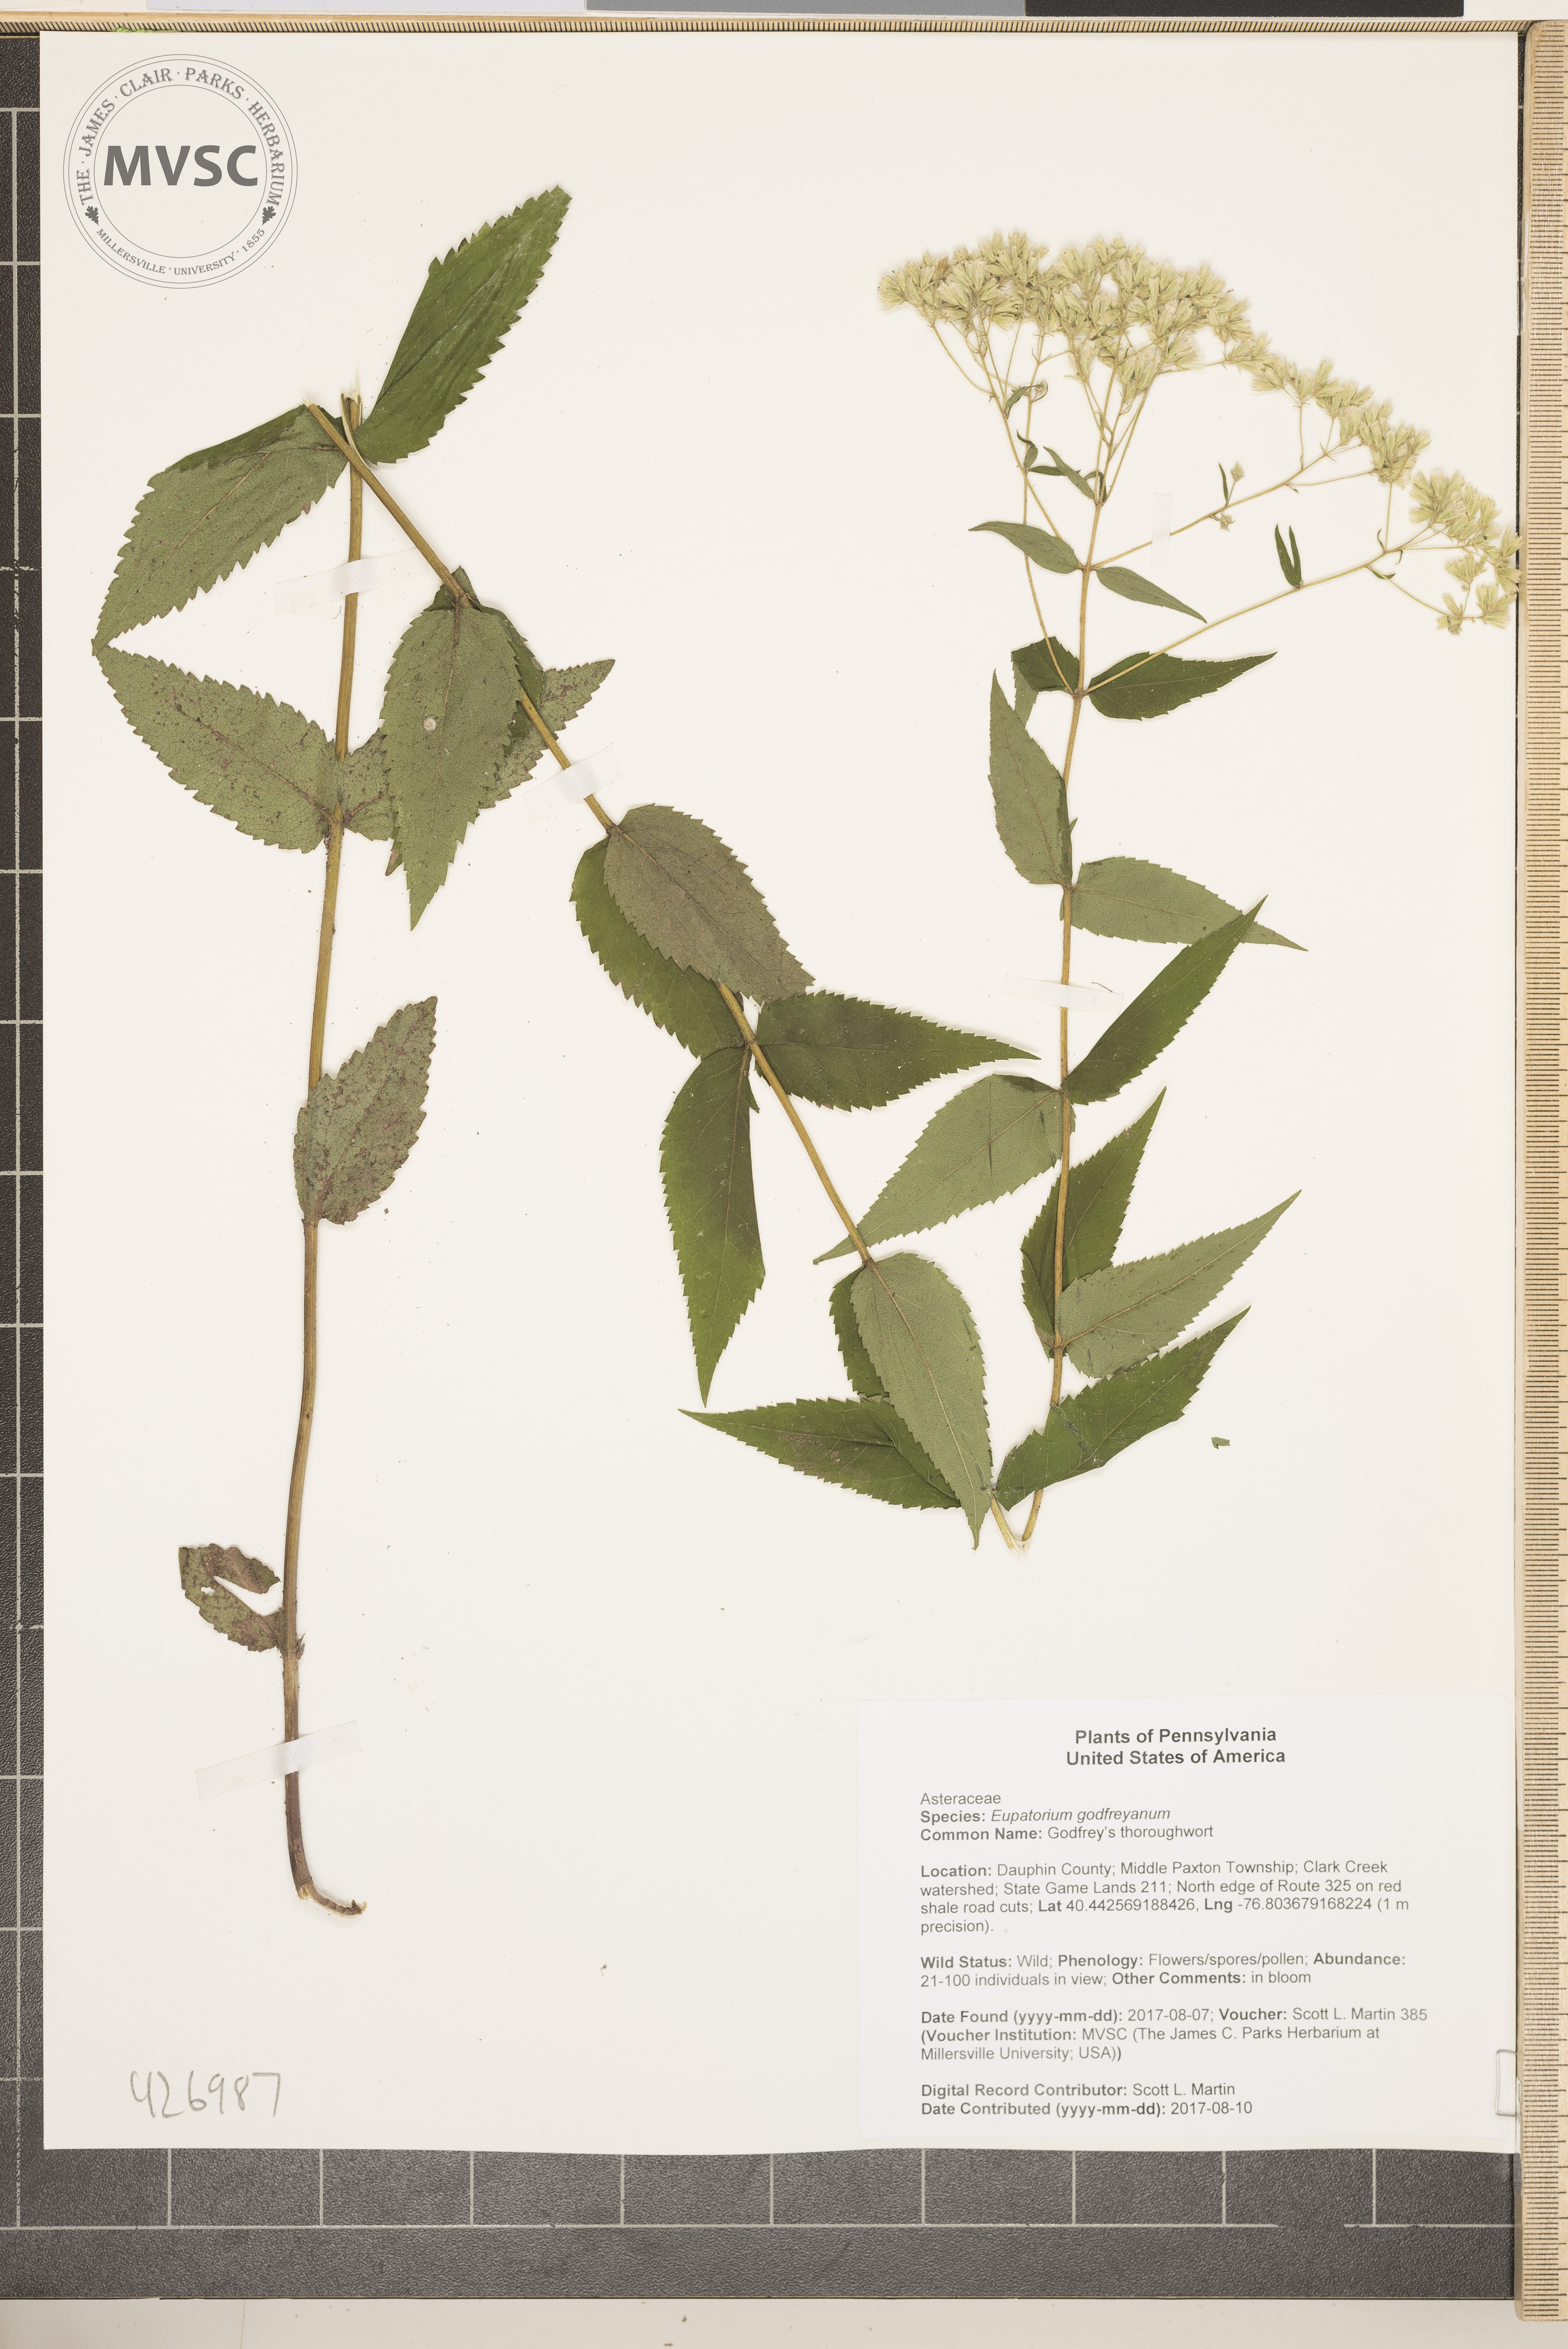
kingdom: Plantae
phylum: Tracheophyta
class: Magnoliopsida
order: Asterales
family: Asteraceae
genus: Eupatorium
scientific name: Eupatorium godfreyanum
